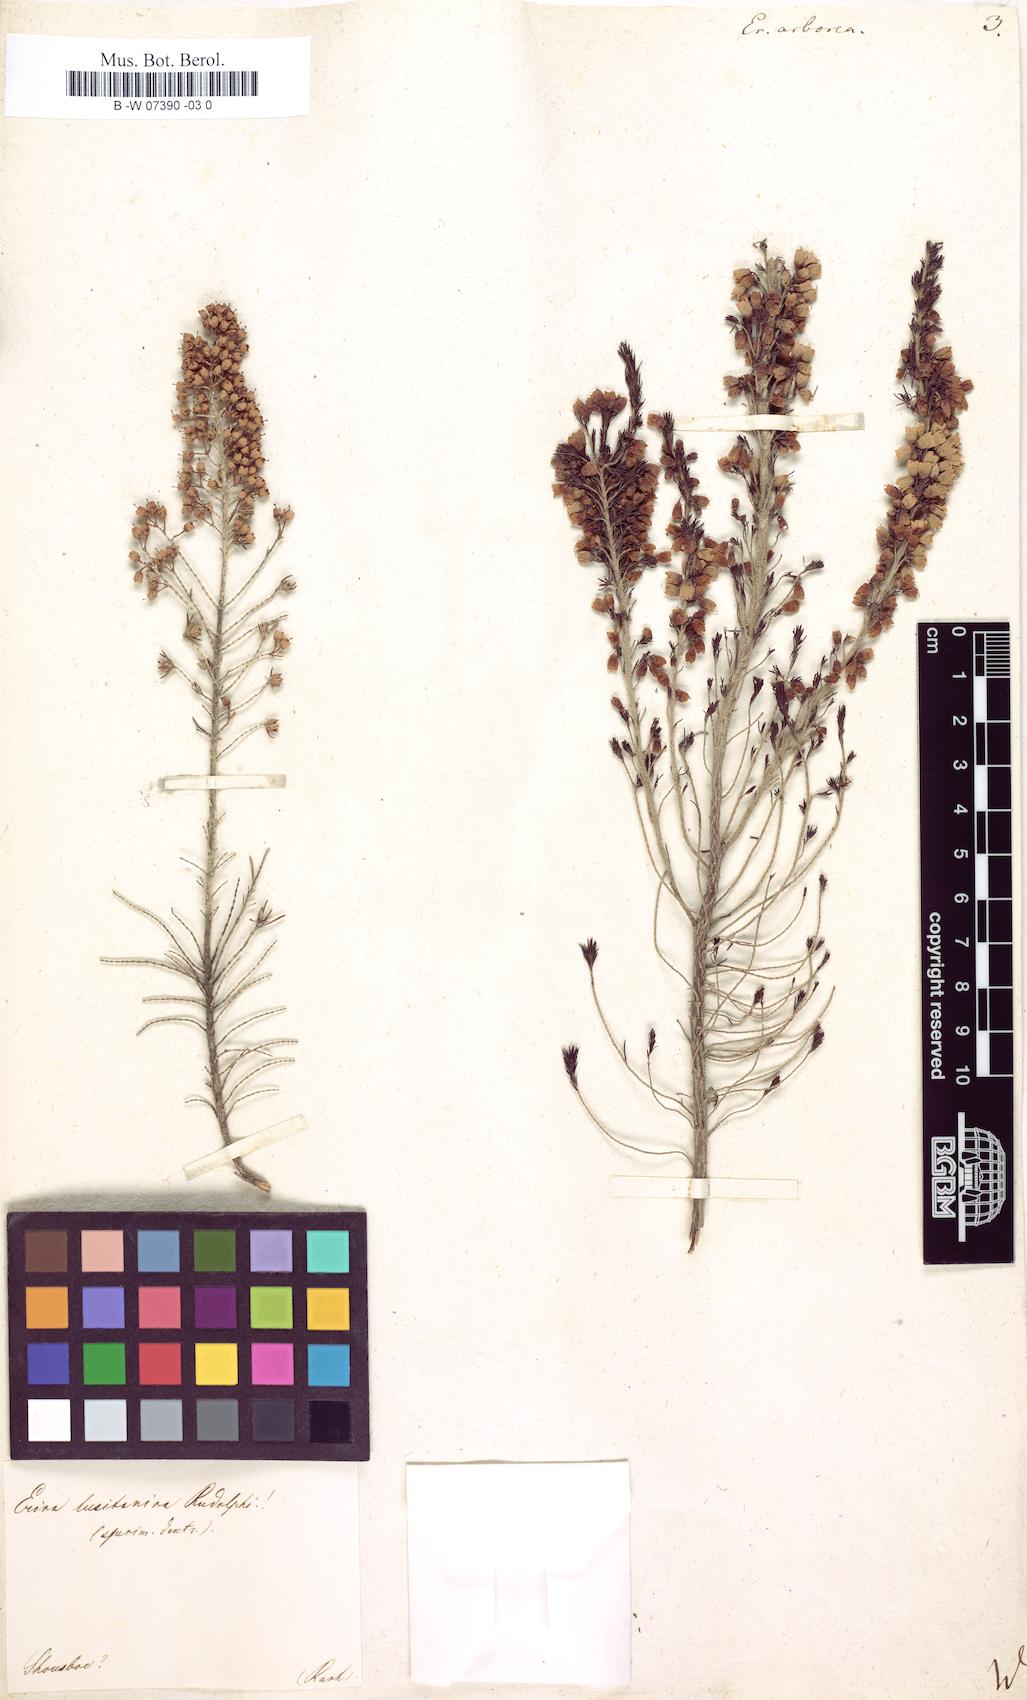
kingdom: Plantae
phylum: Tracheophyta
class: Magnoliopsida
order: Ericales
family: Ericaceae
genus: Erica
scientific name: Erica arborea
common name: Tree heath
